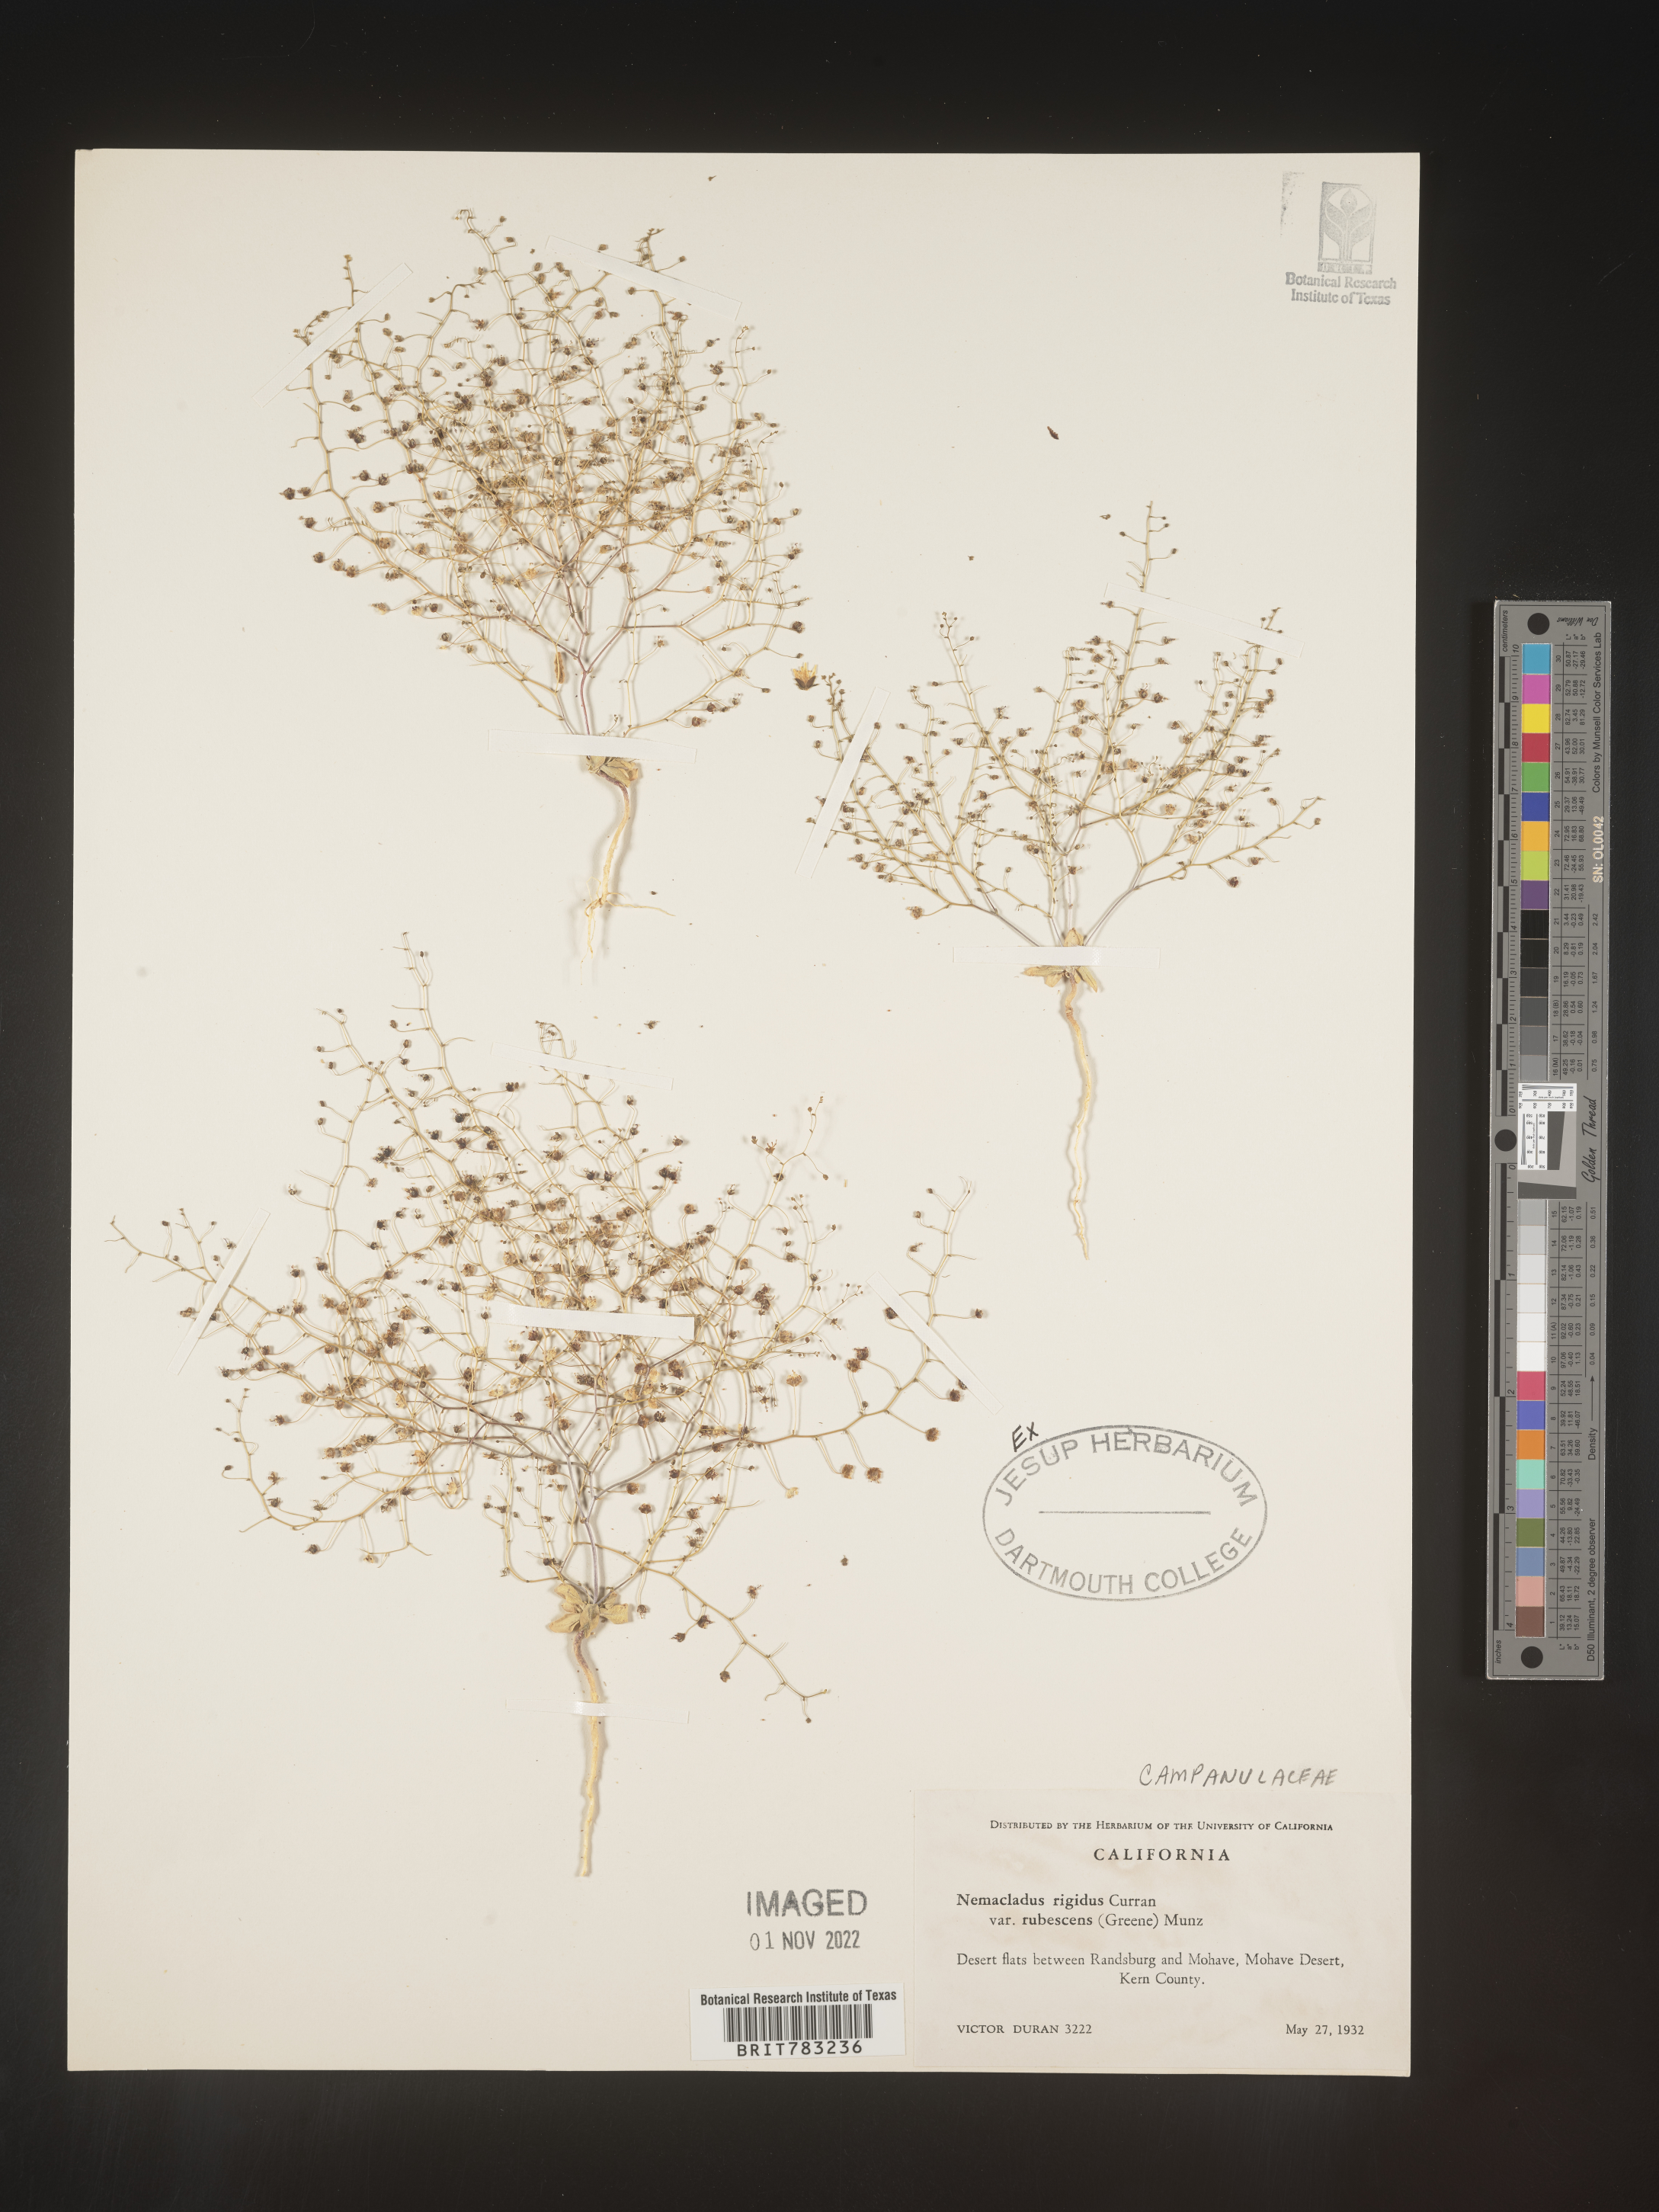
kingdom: Plantae
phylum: Tracheophyta
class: Magnoliopsida
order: Asterales
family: Campanulaceae
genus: Nemacladus
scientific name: Nemacladus
